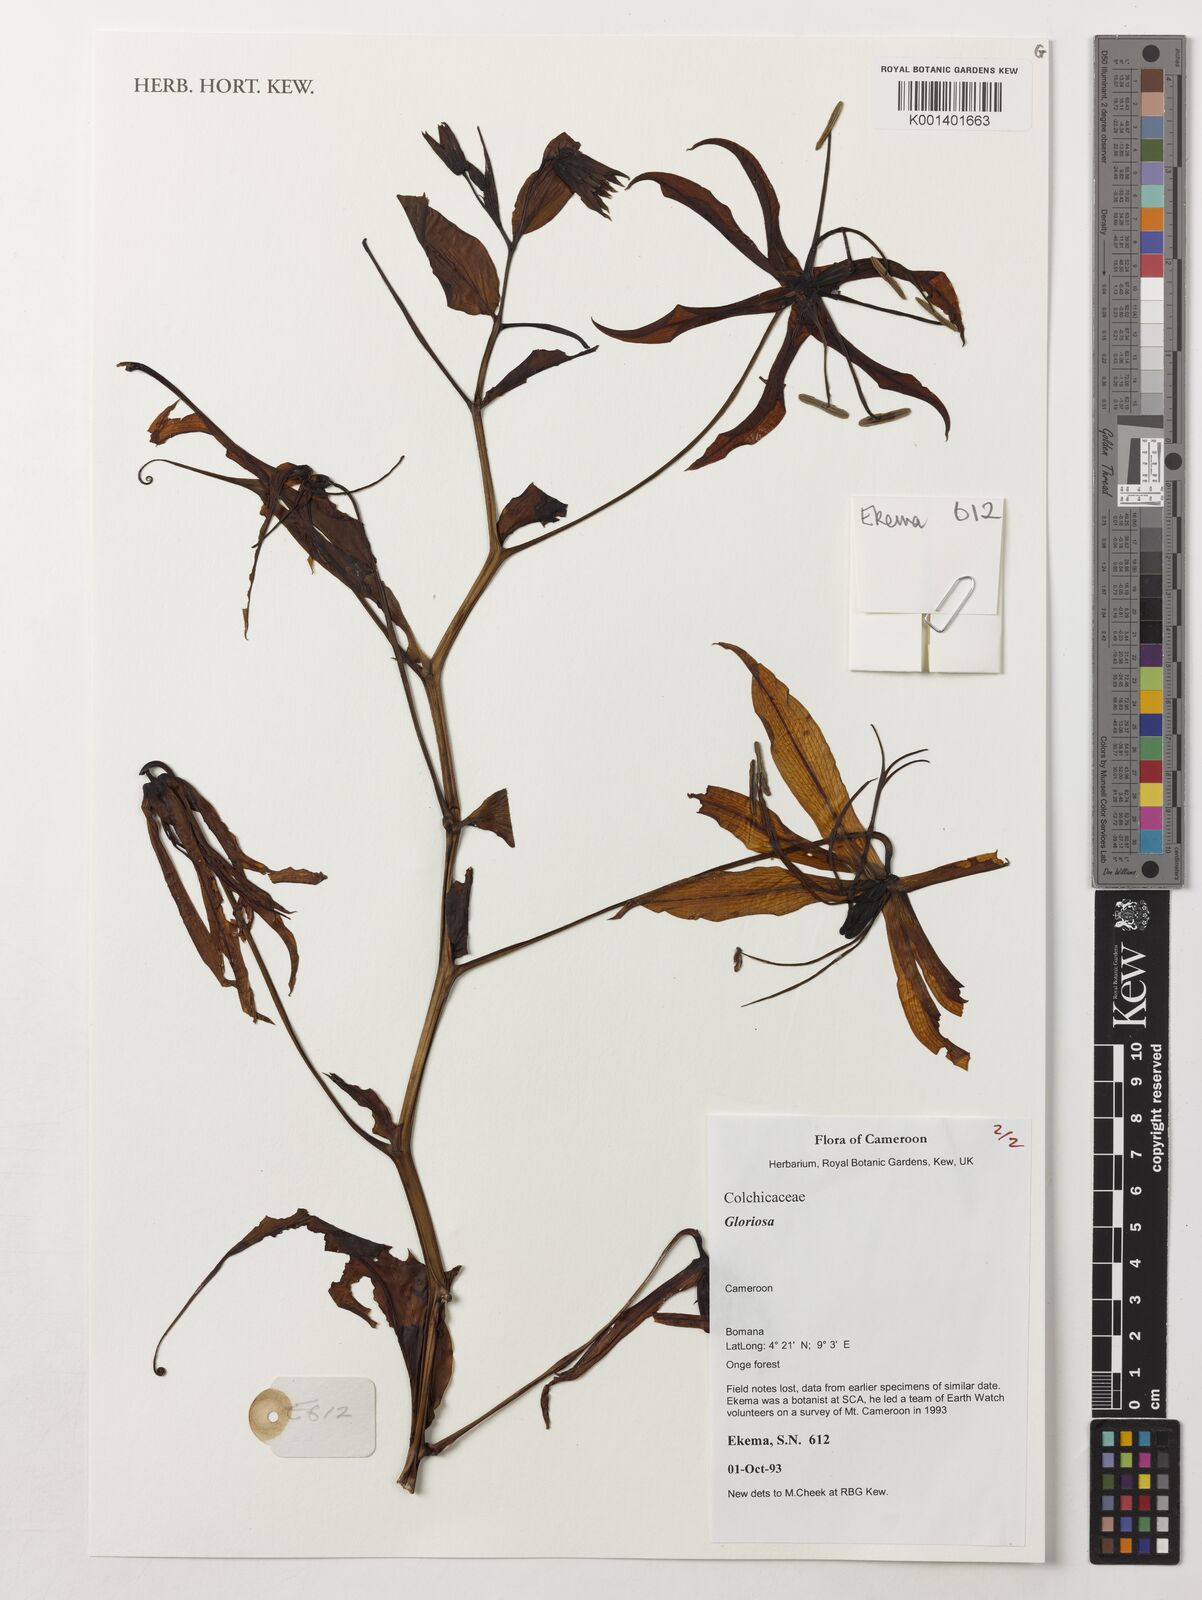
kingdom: Plantae
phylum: Tracheophyta
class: Liliopsida
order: Liliales
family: Colchicaceae
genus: Gloriosa
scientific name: Gloriosa
